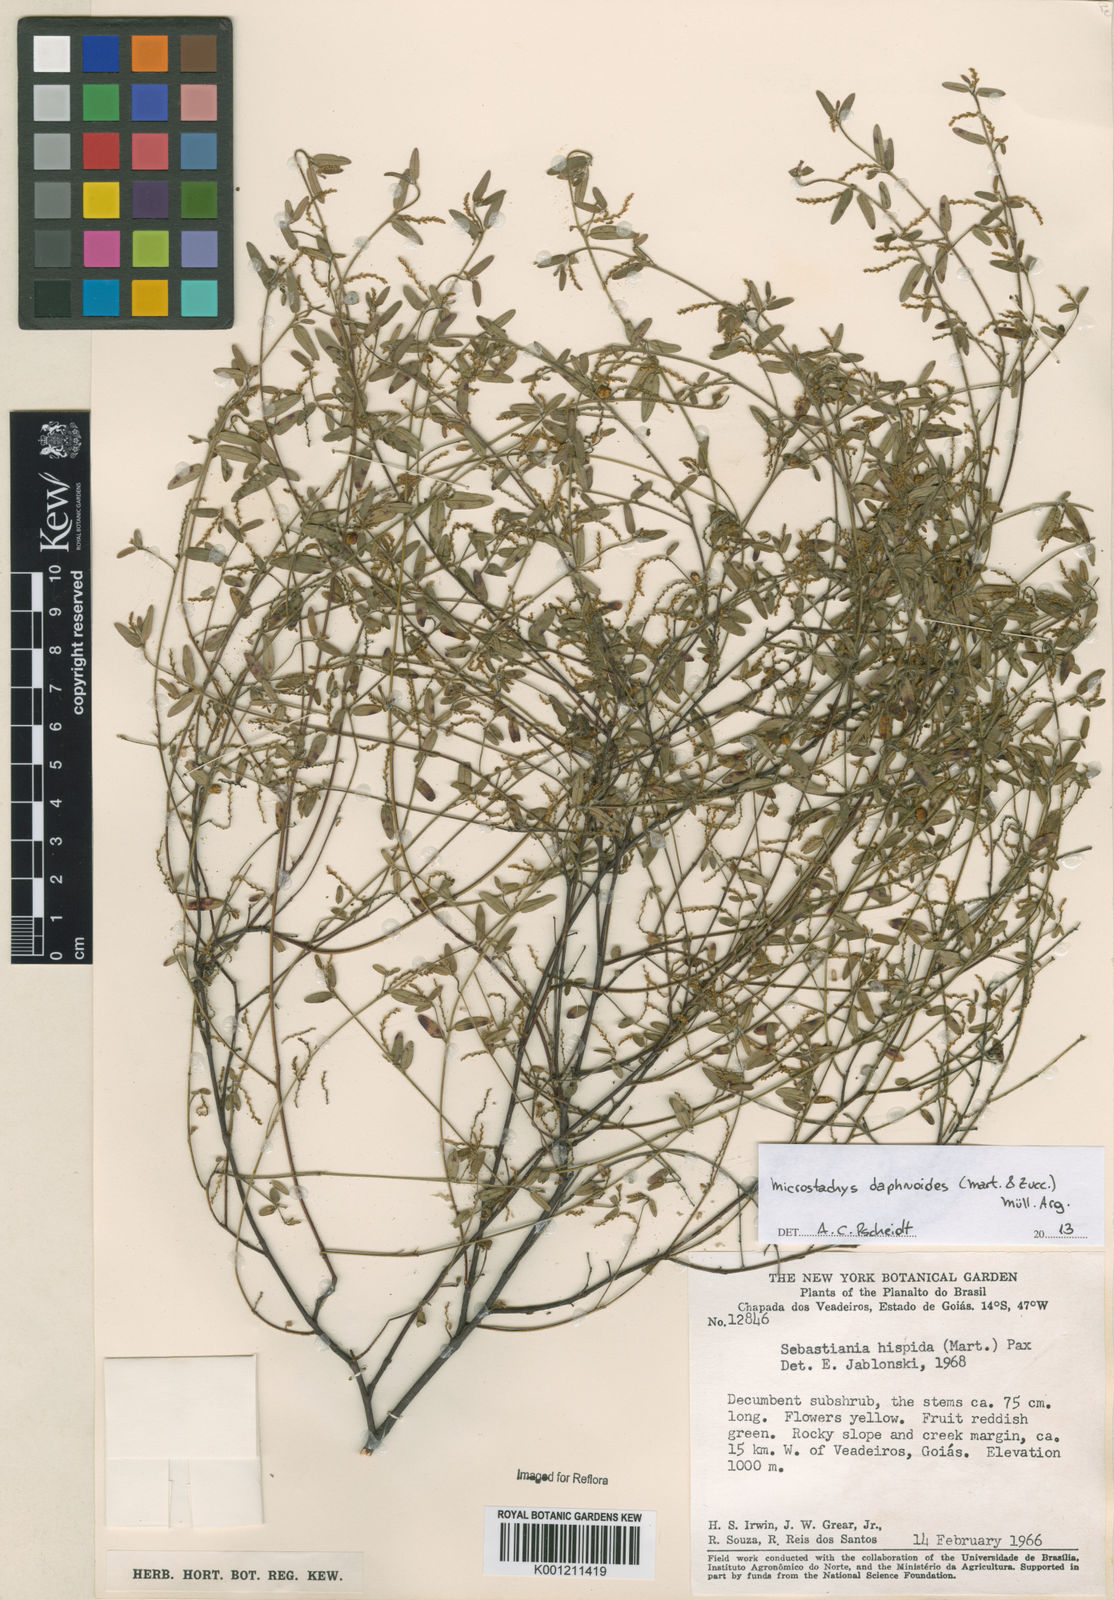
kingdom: Plantae
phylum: Tracheophyta
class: Magnoliopsida
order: Malpighiales
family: Euphorbiaceae
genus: Microstachys
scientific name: Microstachys
